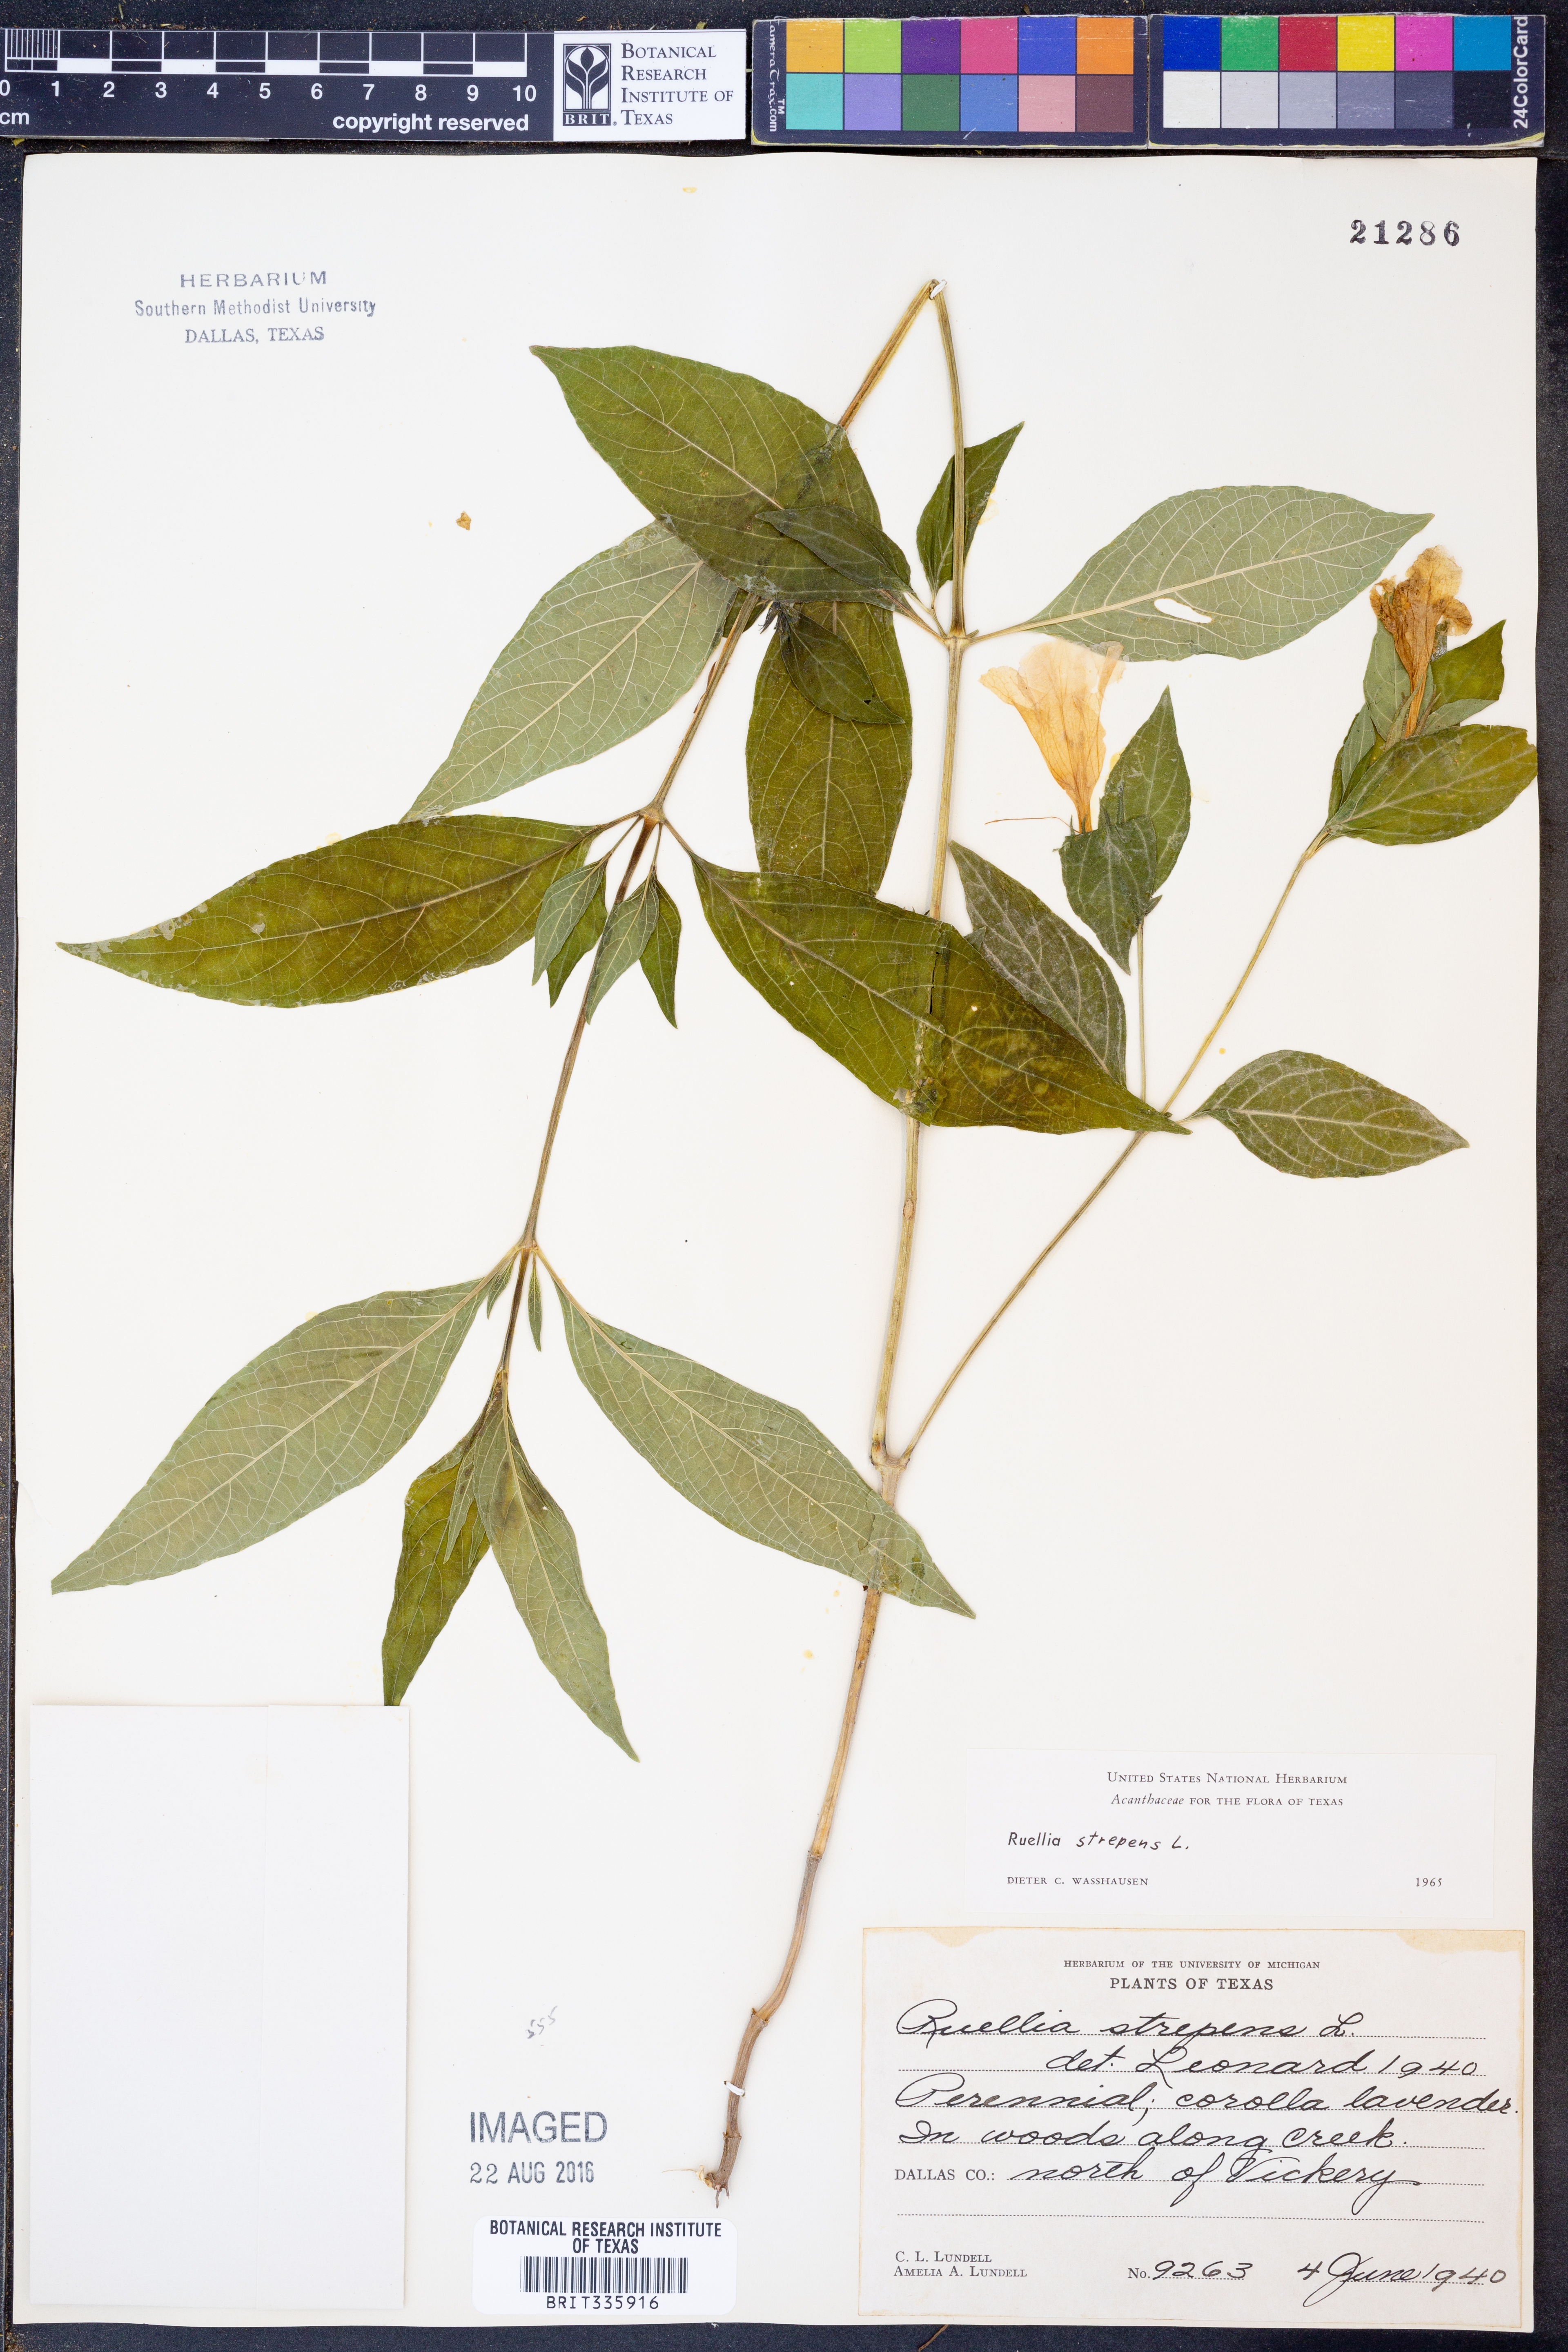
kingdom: Plantae
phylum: Tracheophyta
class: Magnoliopsida
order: Lamiales
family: Acanthaceae
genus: Ruellia
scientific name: Ruellia strepens
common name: Limestone wild petunia
